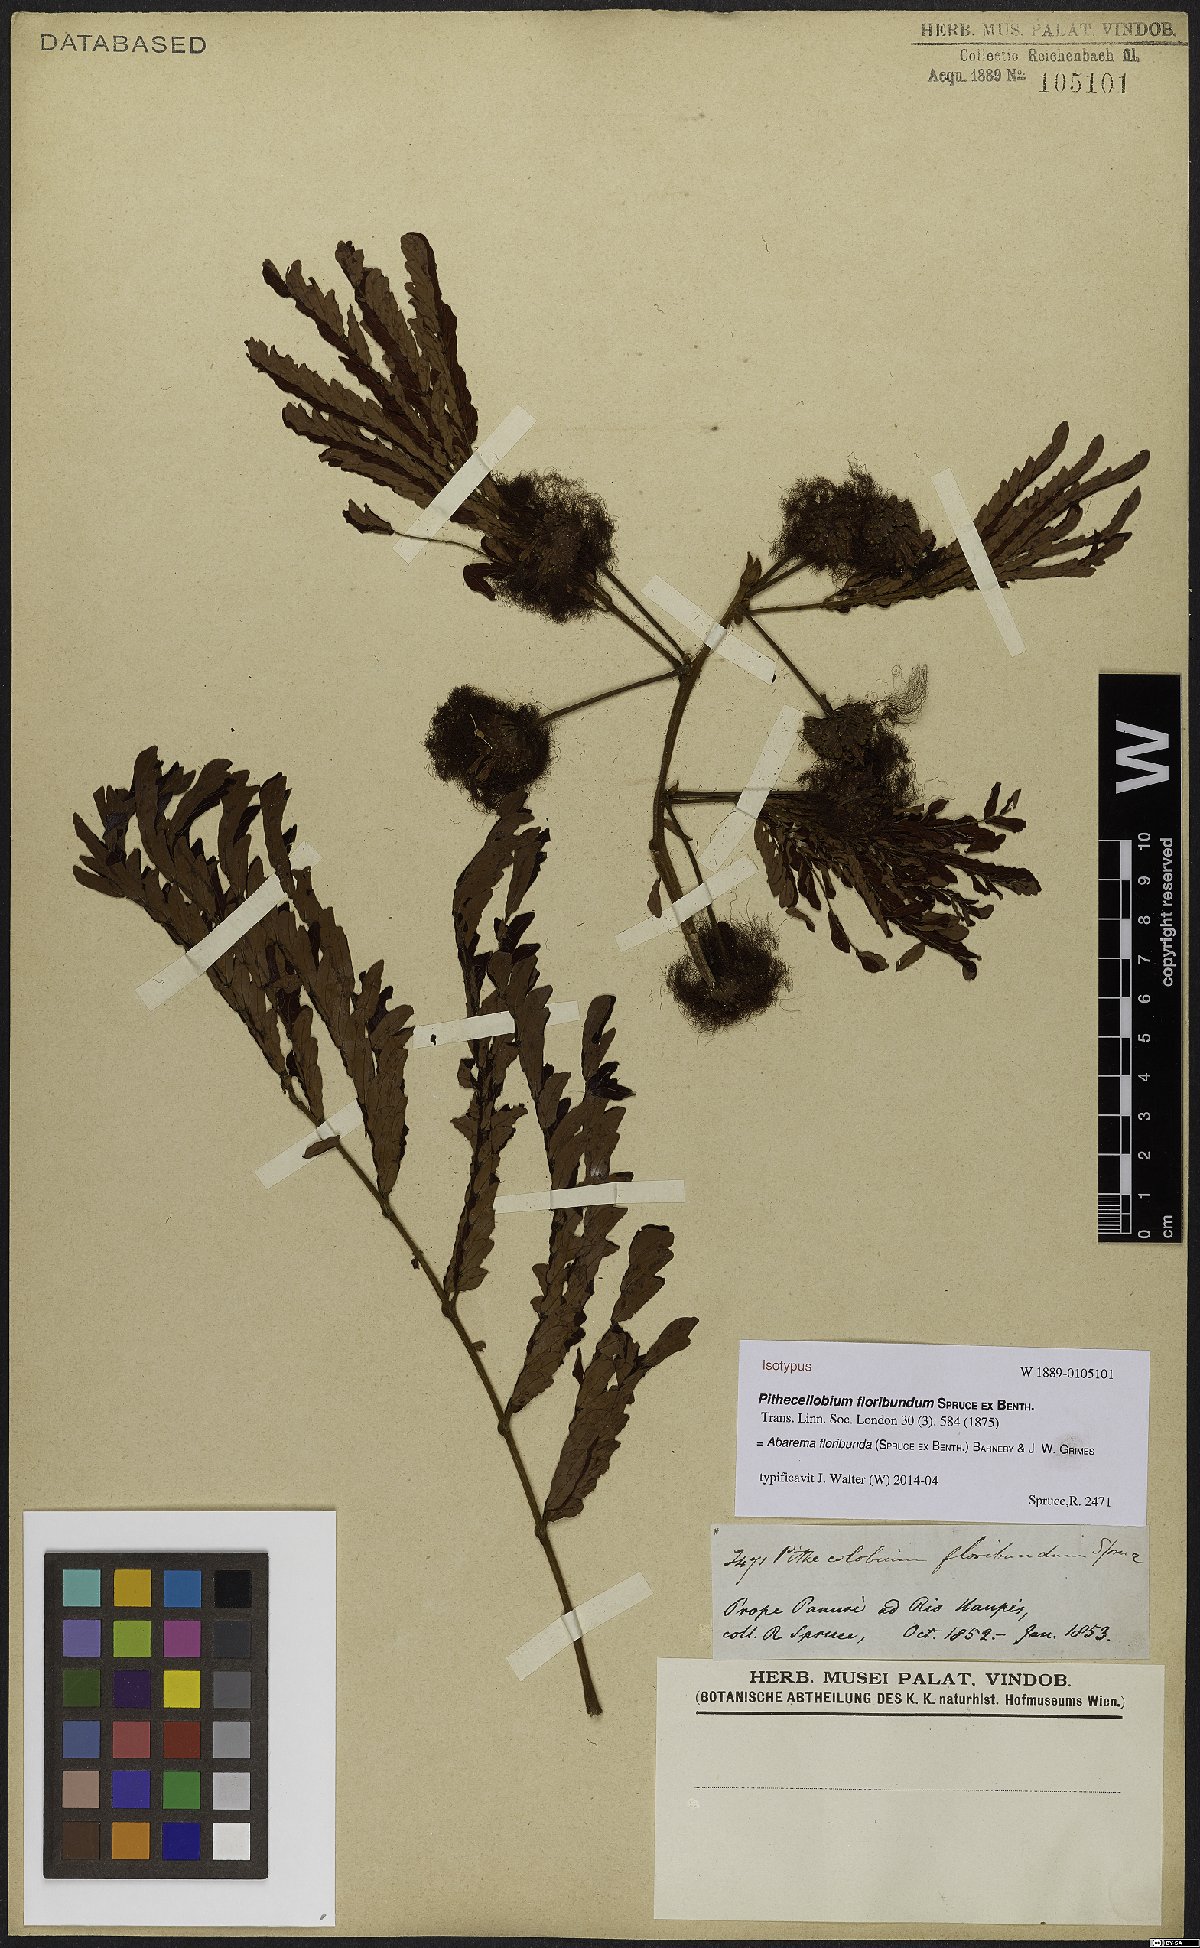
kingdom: Plantae
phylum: Tracheophyta
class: Magnoliopsida
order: Fabales
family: Fabaceae
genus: Jupunba
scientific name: Jupunba floribunda
